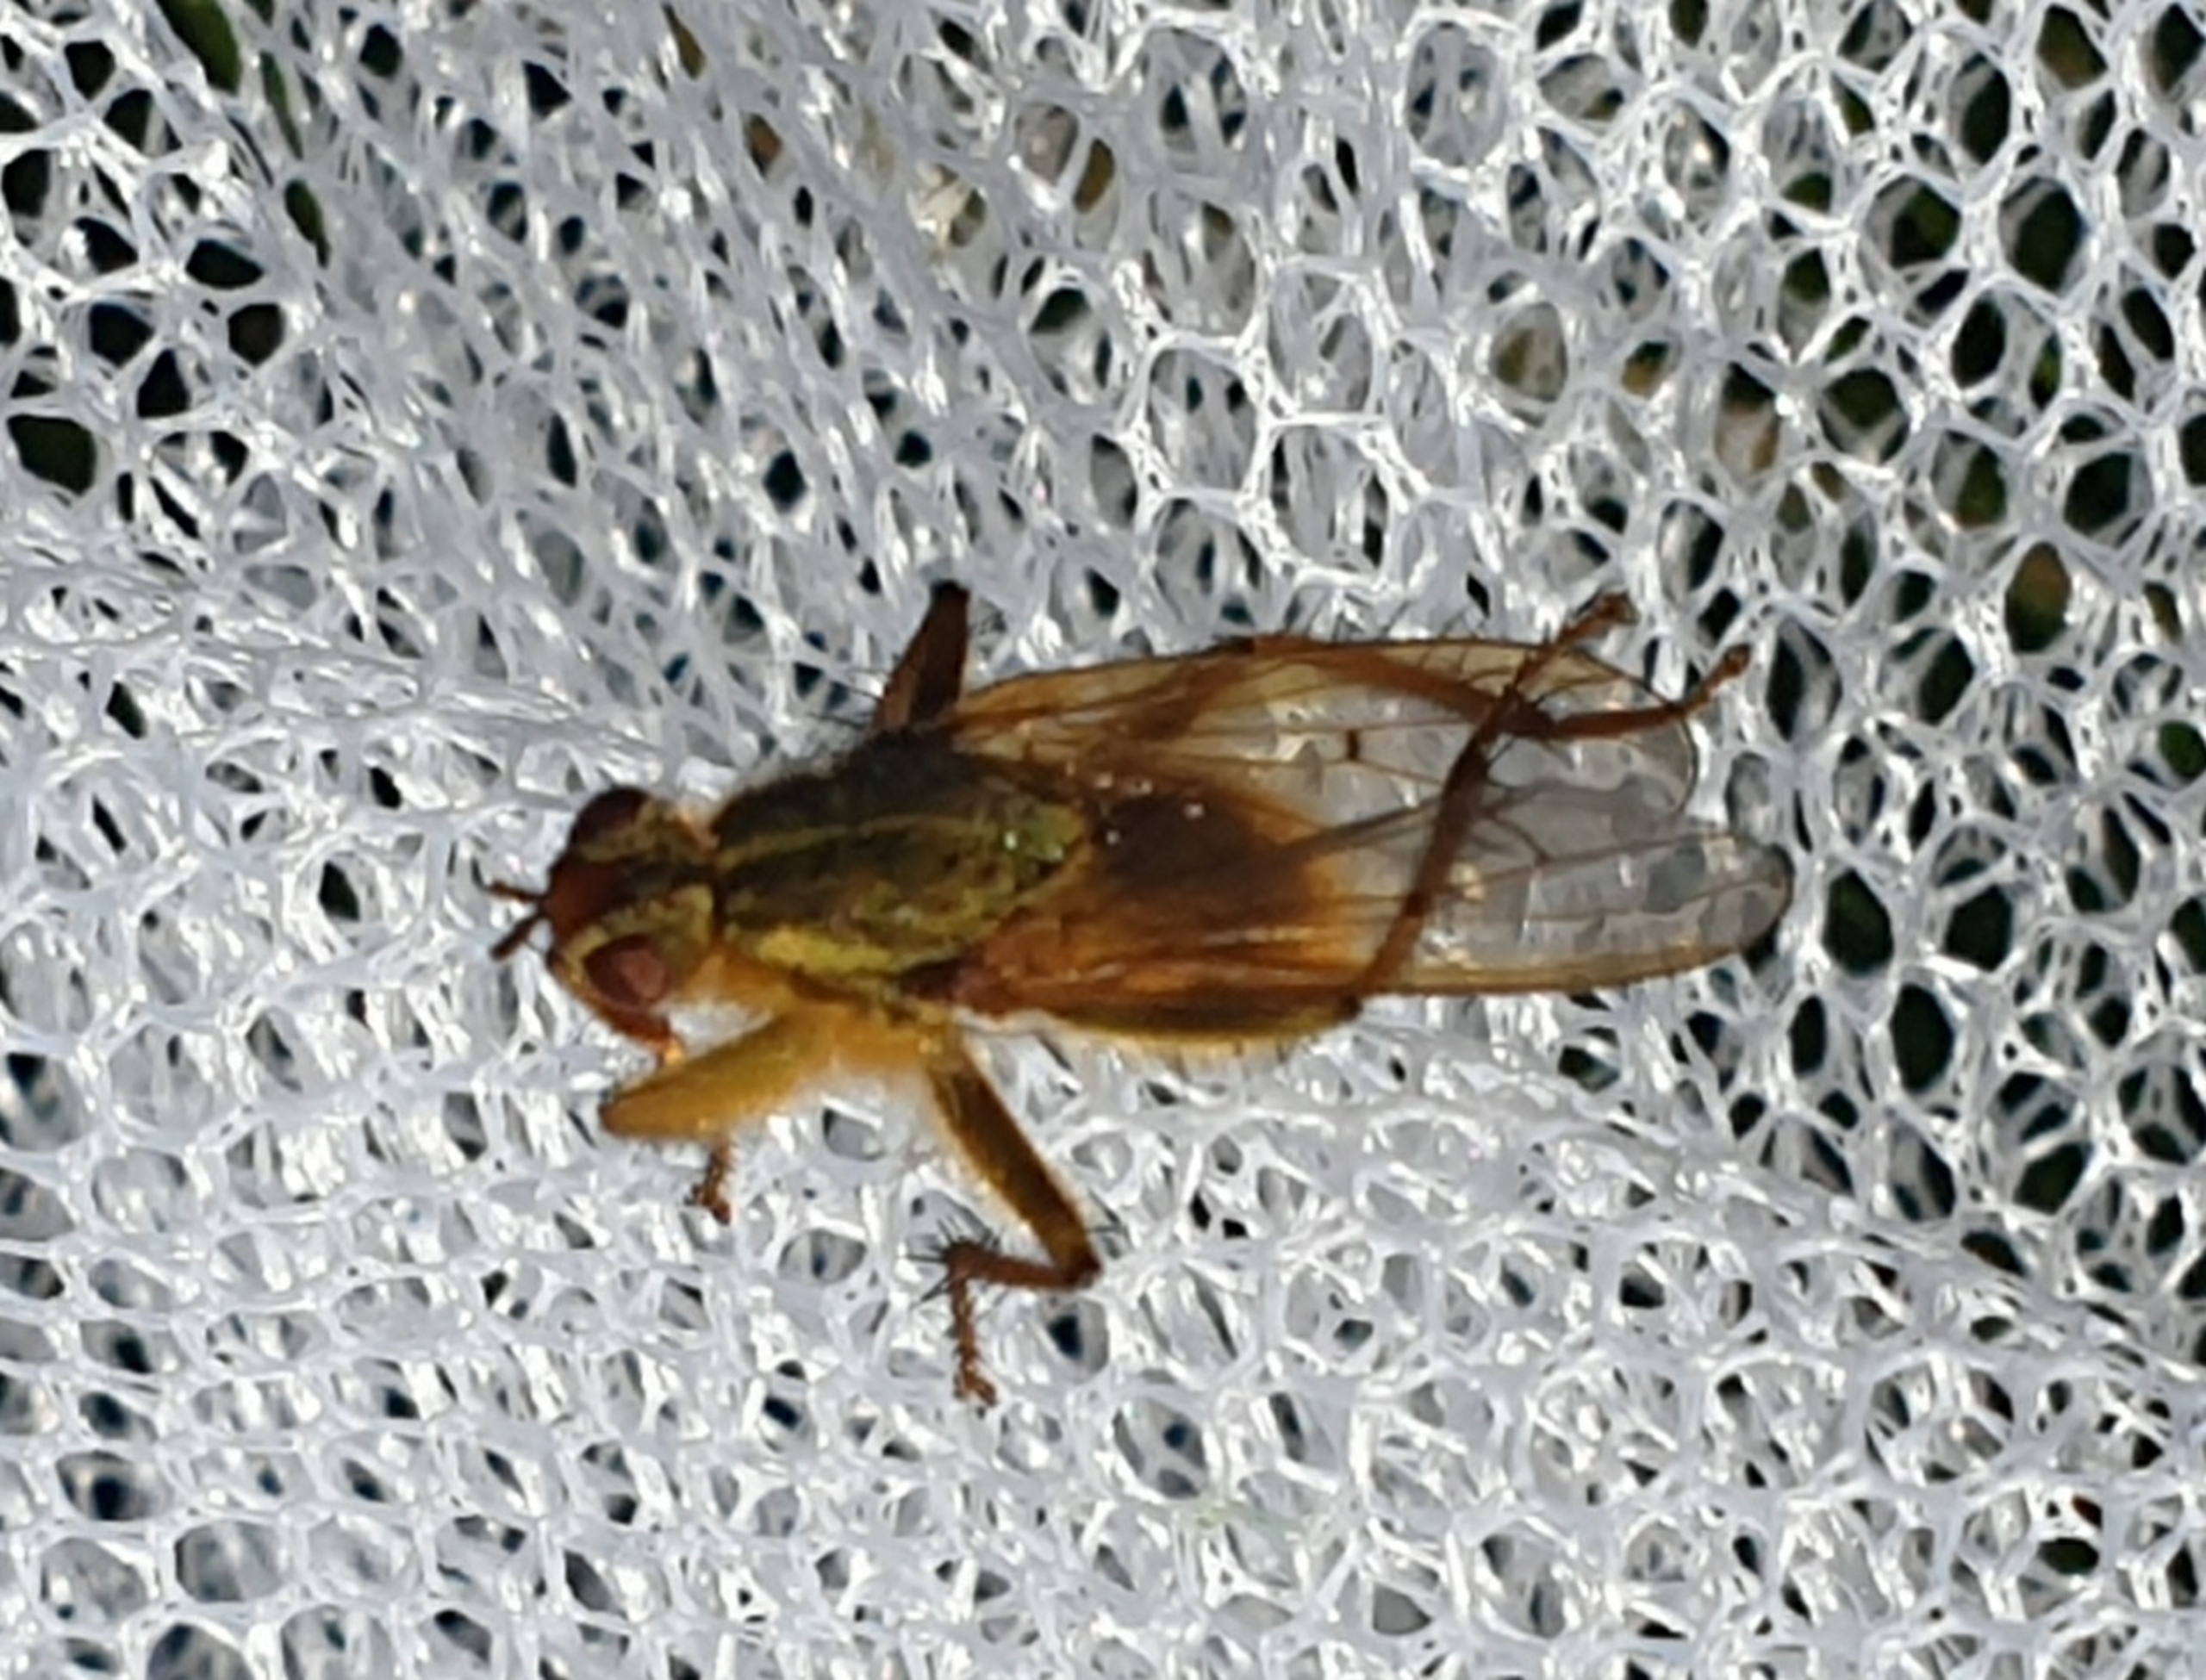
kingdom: Animalia
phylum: Arthropoda
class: Insecta
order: Diptera
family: Scathophagidae
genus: Scathophaga
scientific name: Scathophaga stercoraria
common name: Almindelig gødningsflue
